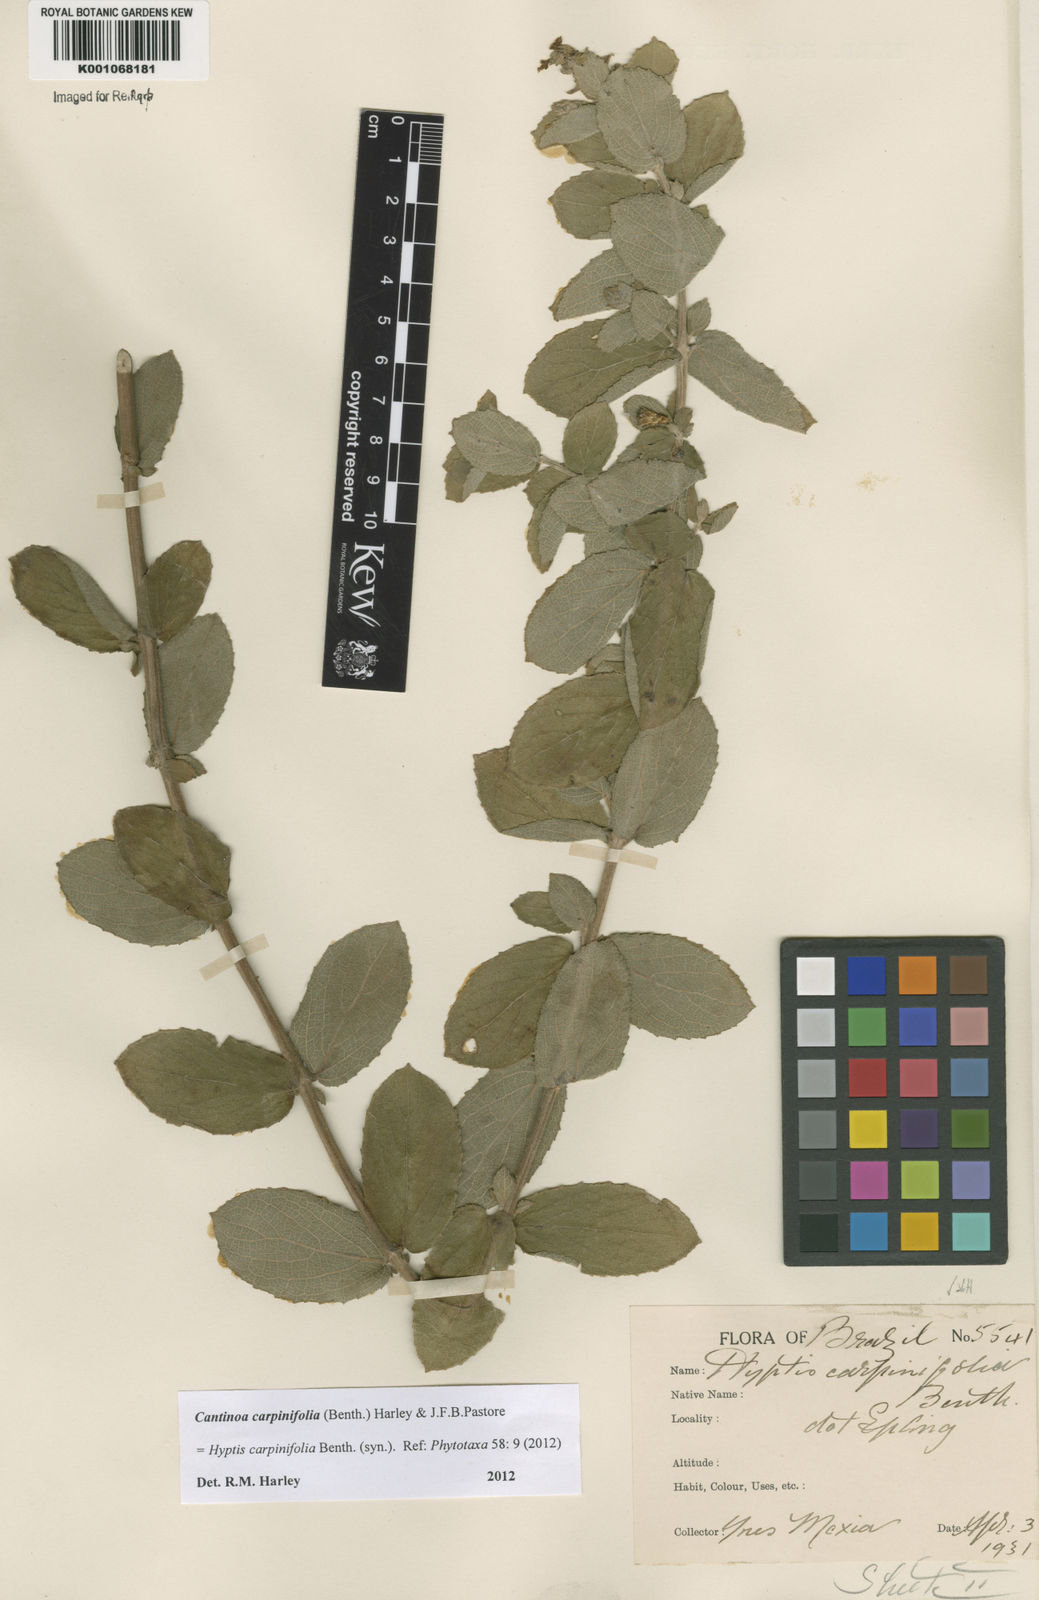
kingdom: Plantae
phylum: Tracheophyta
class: Magnoliopsida
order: Lamiales
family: Lamiaceae
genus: Cantinoa
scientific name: Cantinoa carpinifolia
